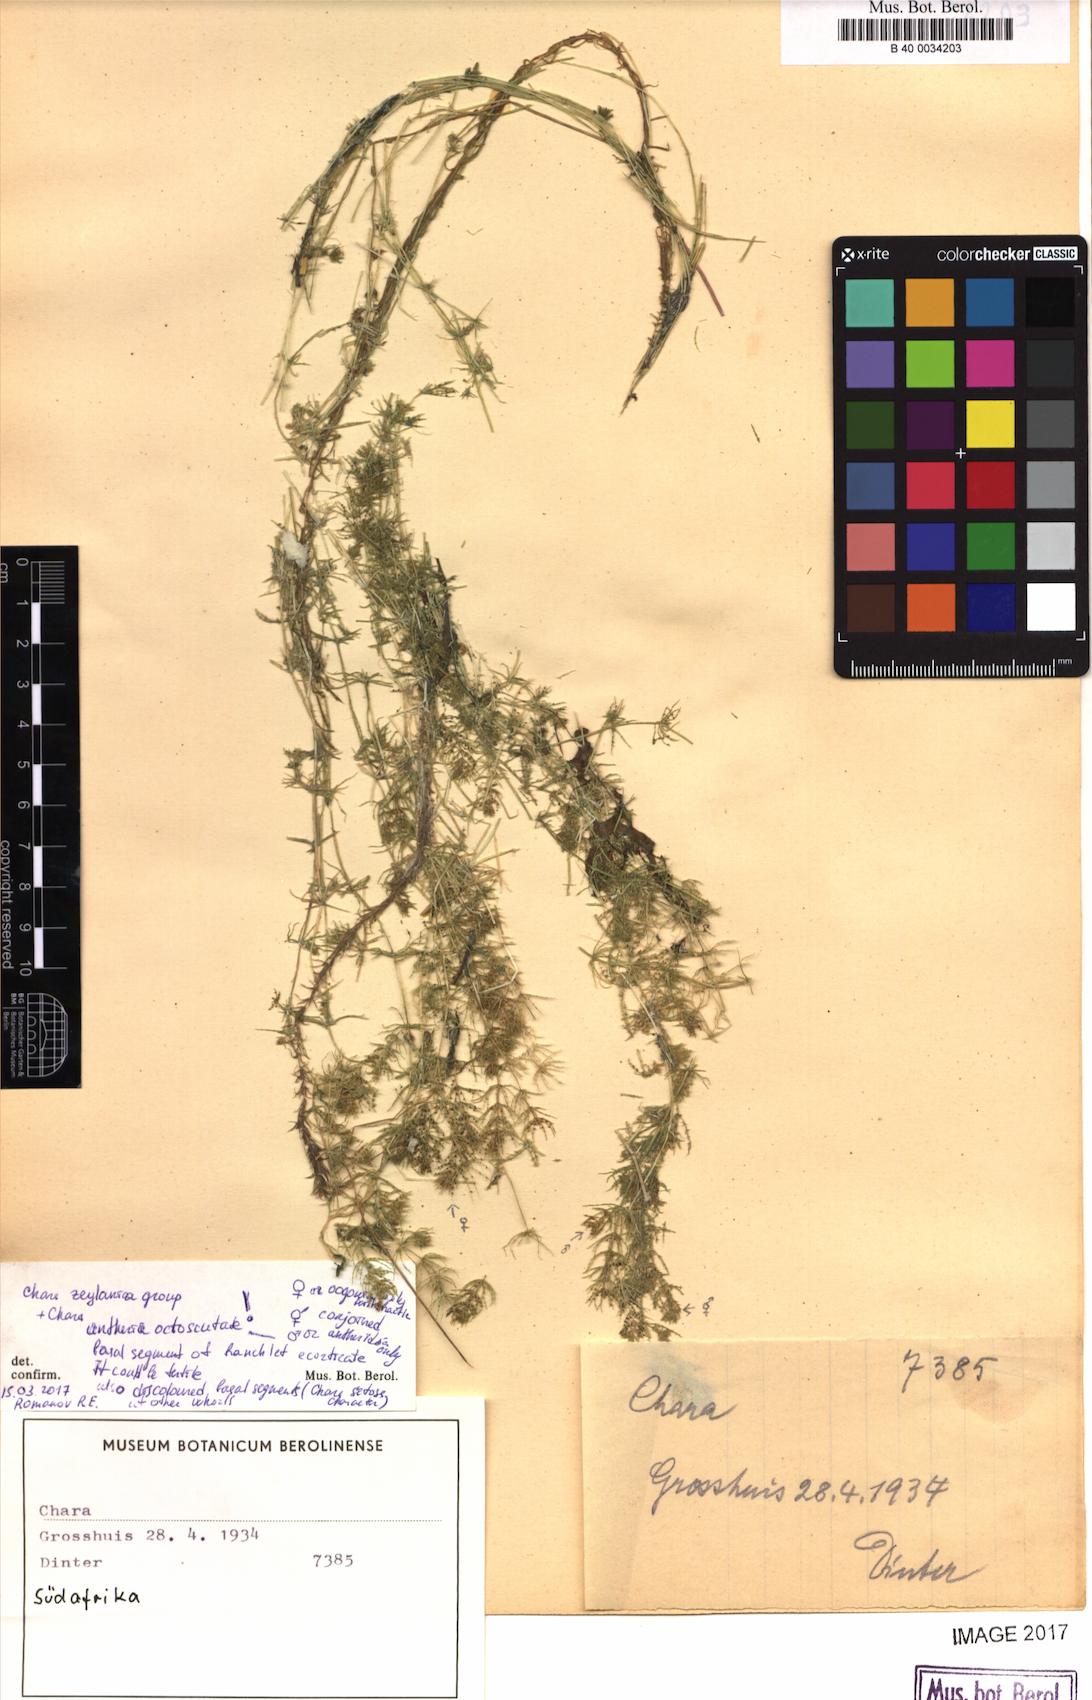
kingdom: Plantae
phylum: Charophyta
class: Charophyceae
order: Charales
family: Characeae
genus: Chara
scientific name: Chara
